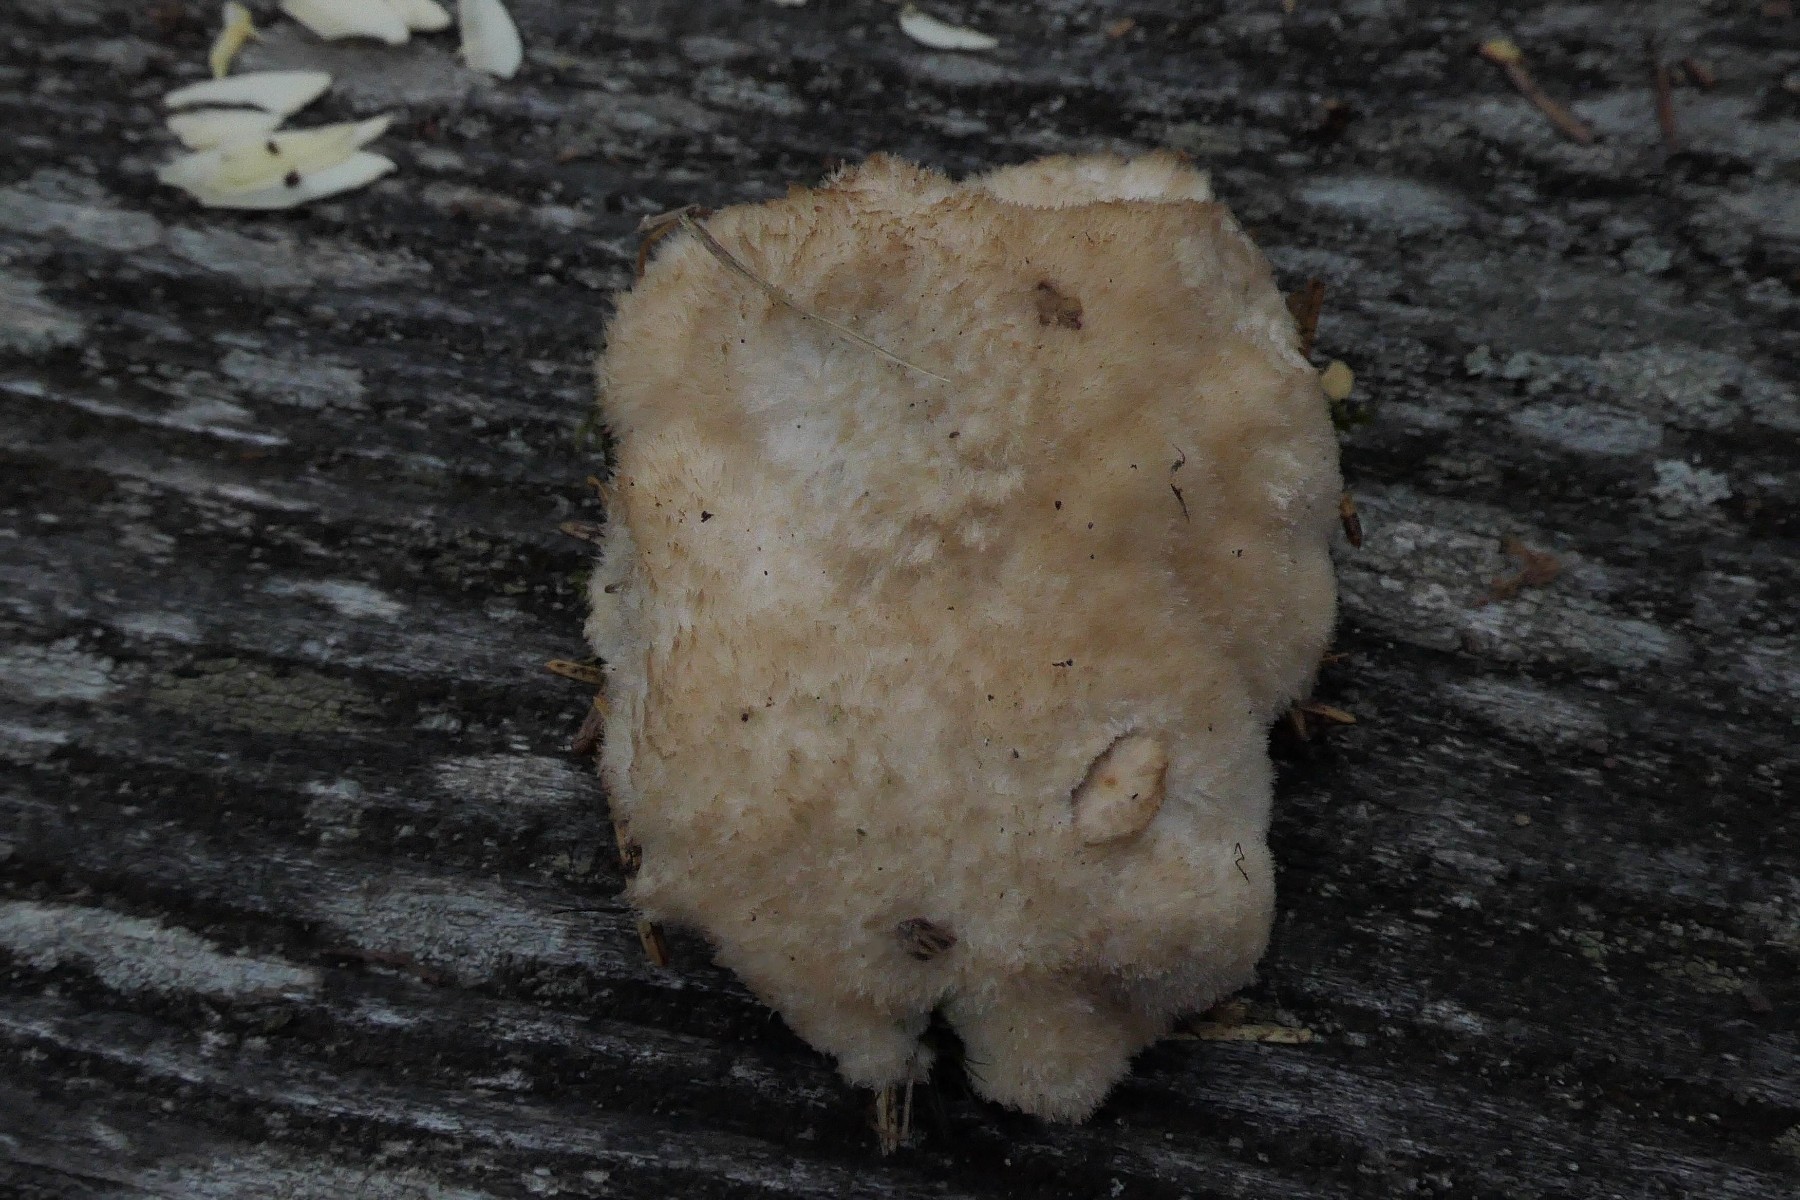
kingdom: Fungi
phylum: Basidiomycota
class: Agaricomycetes
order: Polyporales
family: Dacryobolaceae
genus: Postia
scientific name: Postia ptychogaster
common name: støvende kødporesvamp
